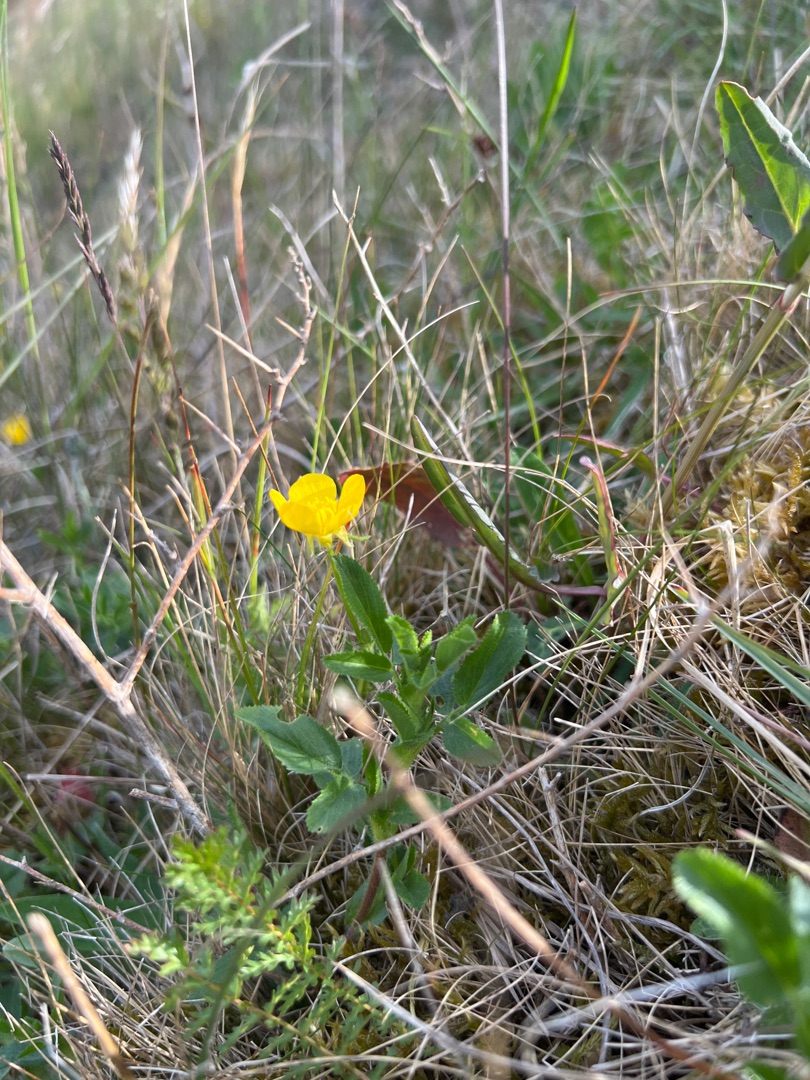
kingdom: Plantae
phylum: Tracheophyta
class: Magnoliopsida
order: Ranunculales
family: Ranunculaceae
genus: Ranunculus
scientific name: Ranunculus bulbosus
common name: Knold-ranunkel
